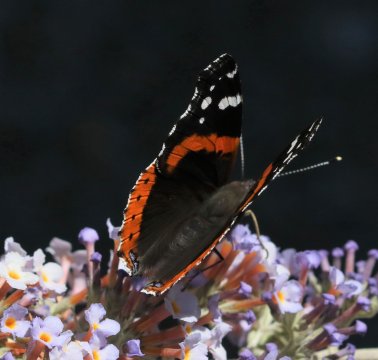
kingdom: Animalia
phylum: Arthropoda
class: Insecta
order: Lepidoptera
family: Nymphalidae
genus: Vanessa
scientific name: Vanessa atalanta
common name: Red Admiral
